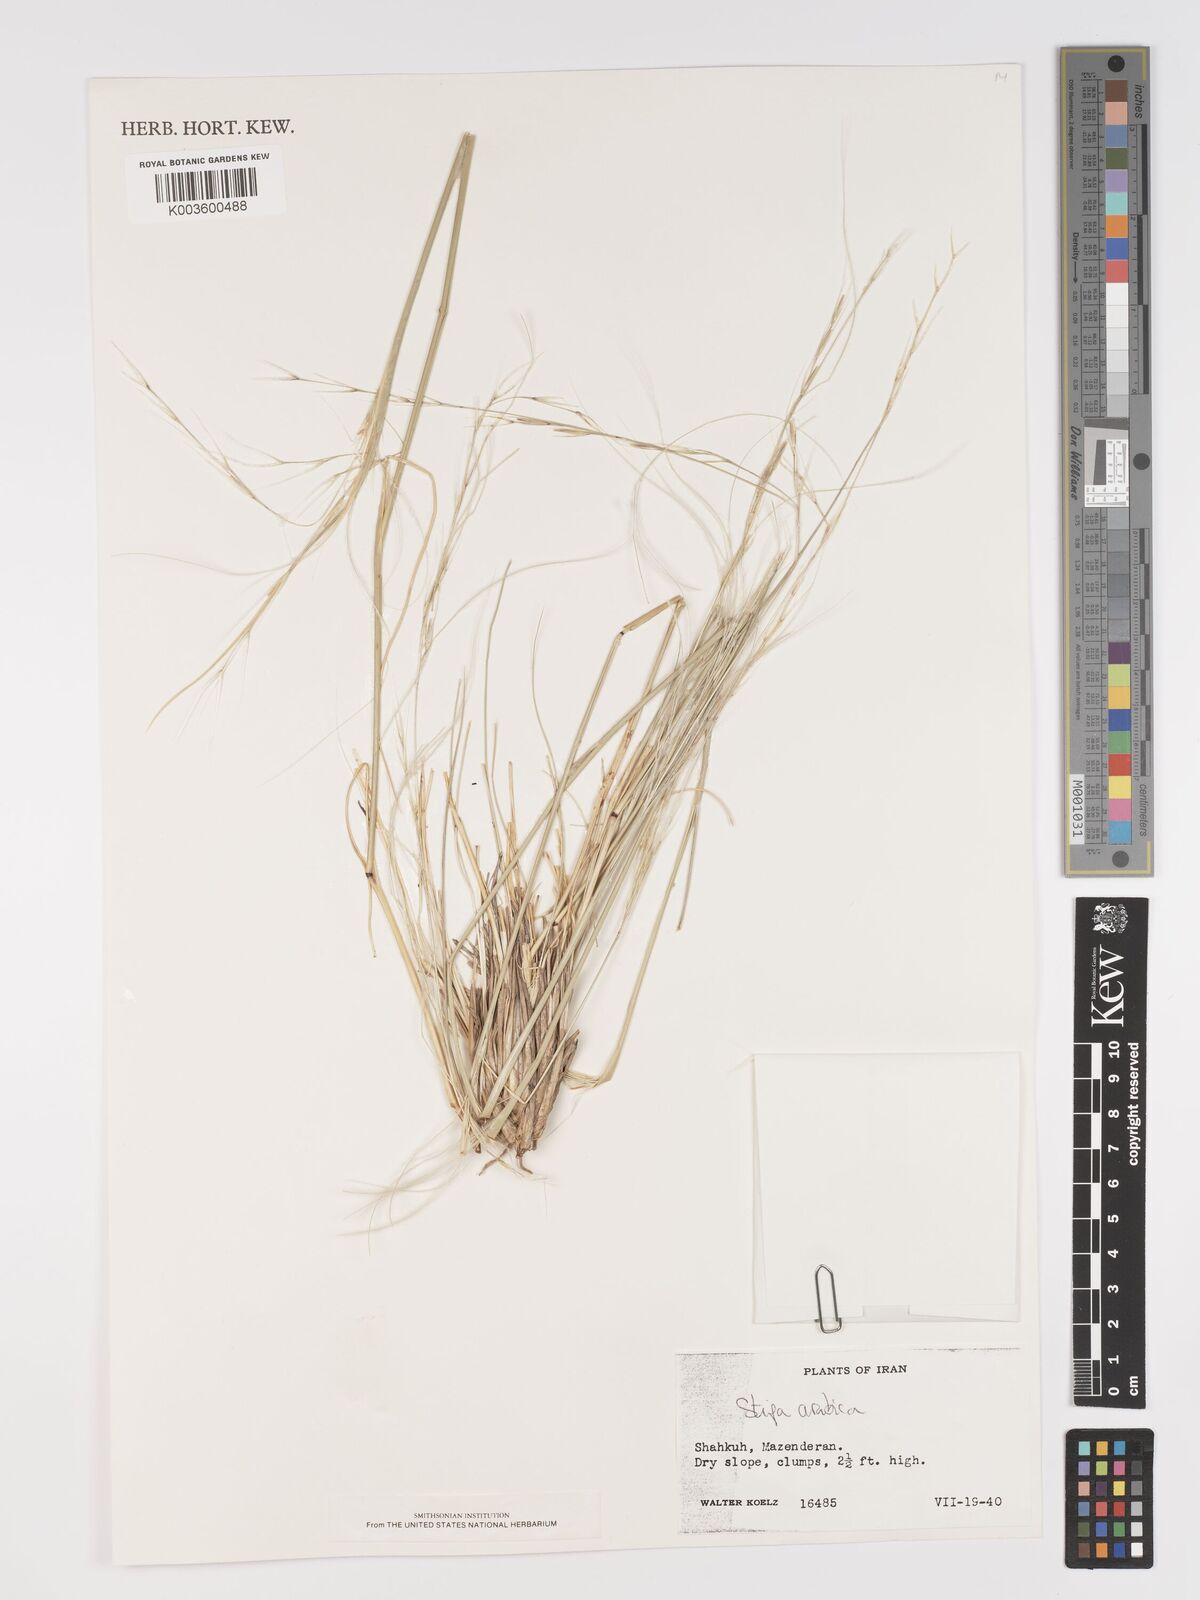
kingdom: Plantae
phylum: Tracheophyta
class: Liliopsida
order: Poales
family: Poaceae
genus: Stipa
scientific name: Stipa arabica
